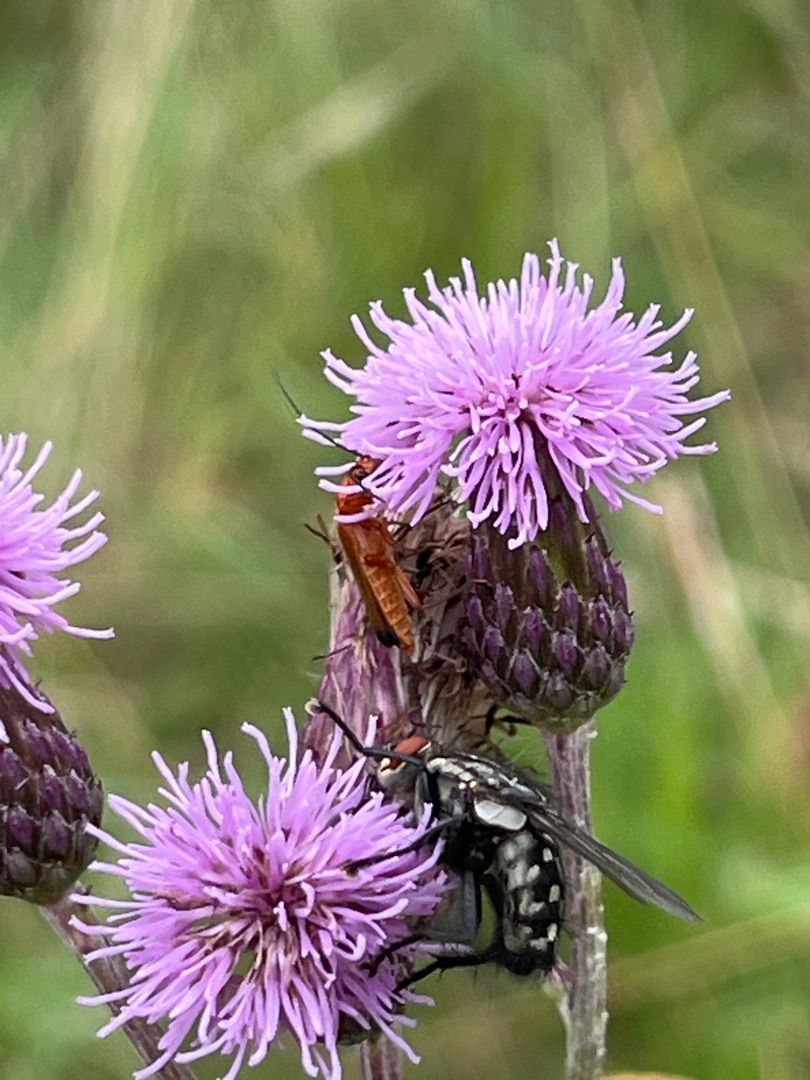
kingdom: Animalia
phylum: Arthropoda
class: Insecta
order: Diptera
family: Sarcophagidae
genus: Sarcophaga
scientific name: Sarcophaga
